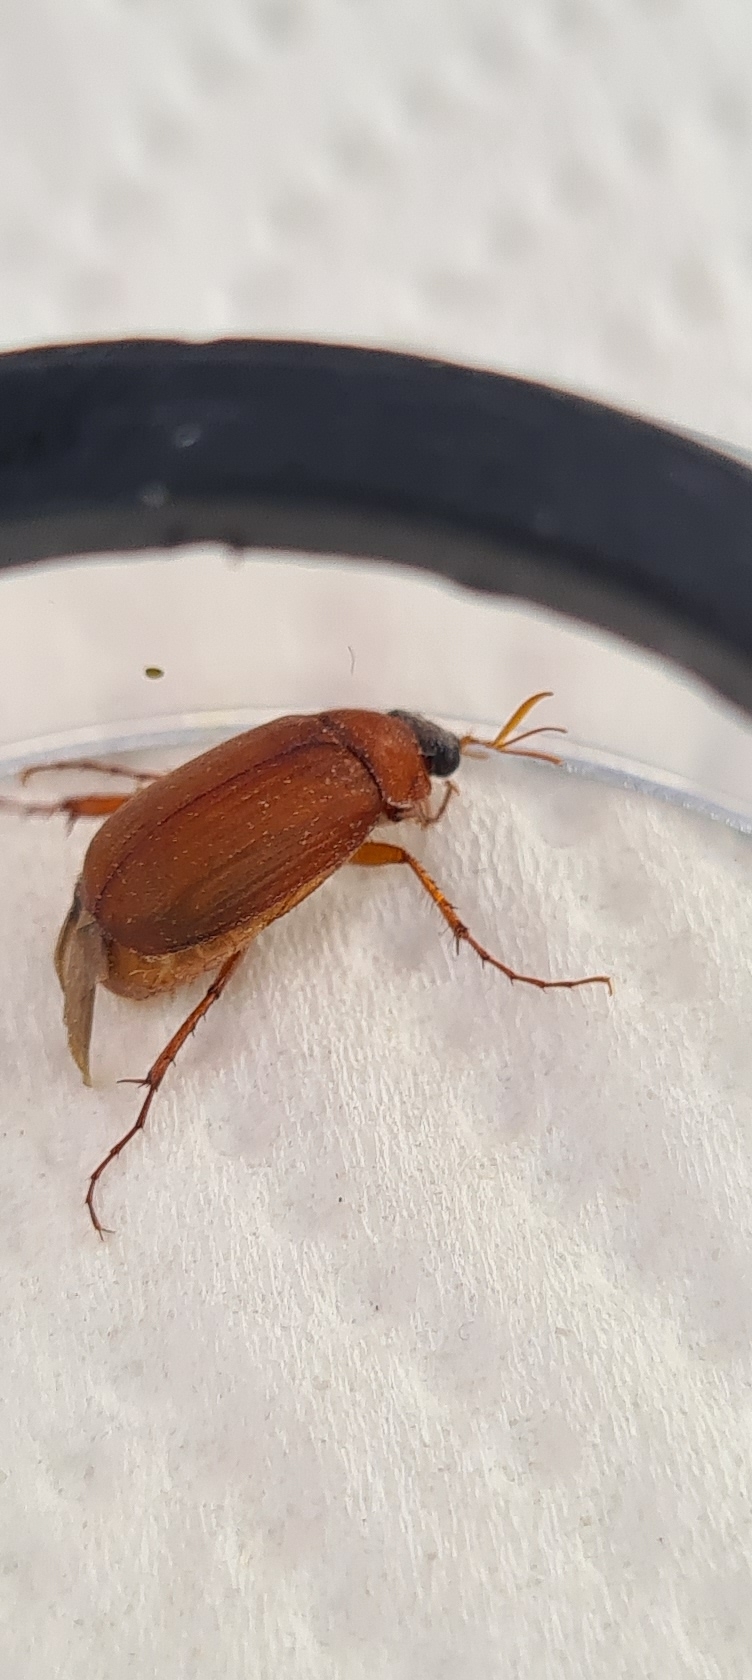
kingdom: Animalia
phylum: Arthropoda
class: Insecta
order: Coleoptera
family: Scarabaeidae
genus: Serica
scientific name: Serica brunnea
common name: Natoldenborre
